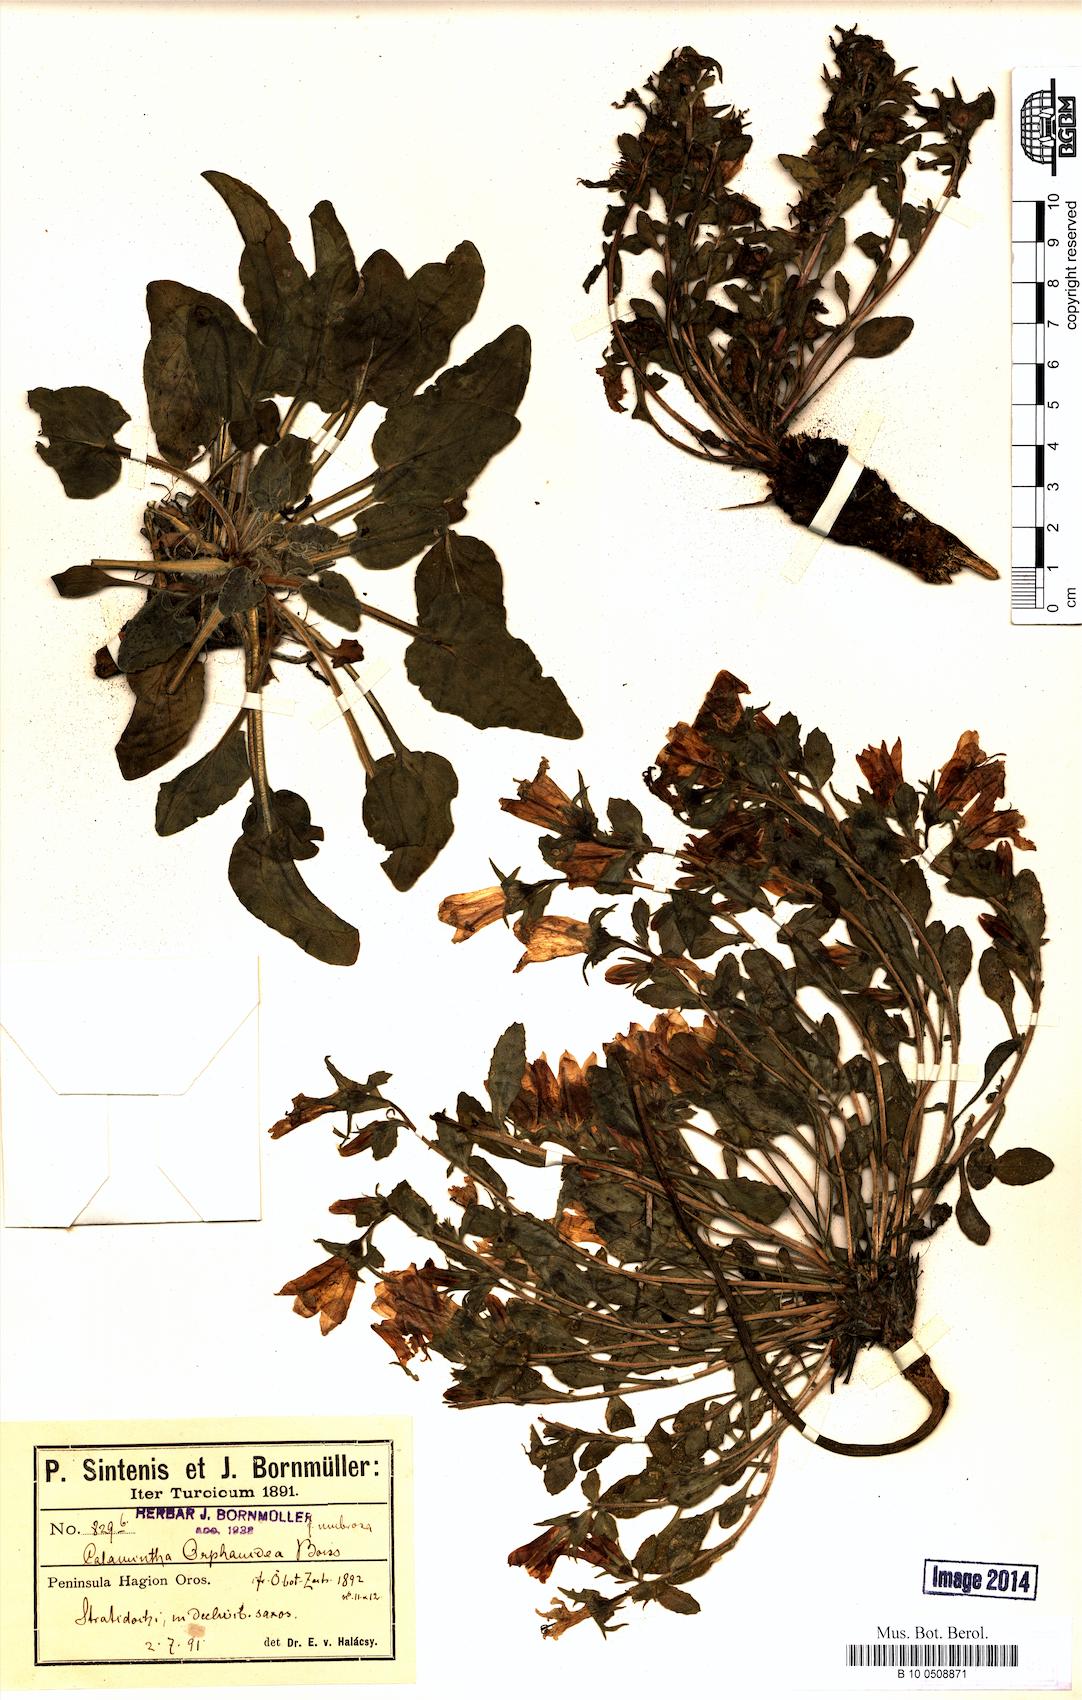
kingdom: Plantae
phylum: Tracheophyta
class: Magnoliopsida
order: Asterales
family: Campanulaceae
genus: Campanula
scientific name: Campanula orphanidea
